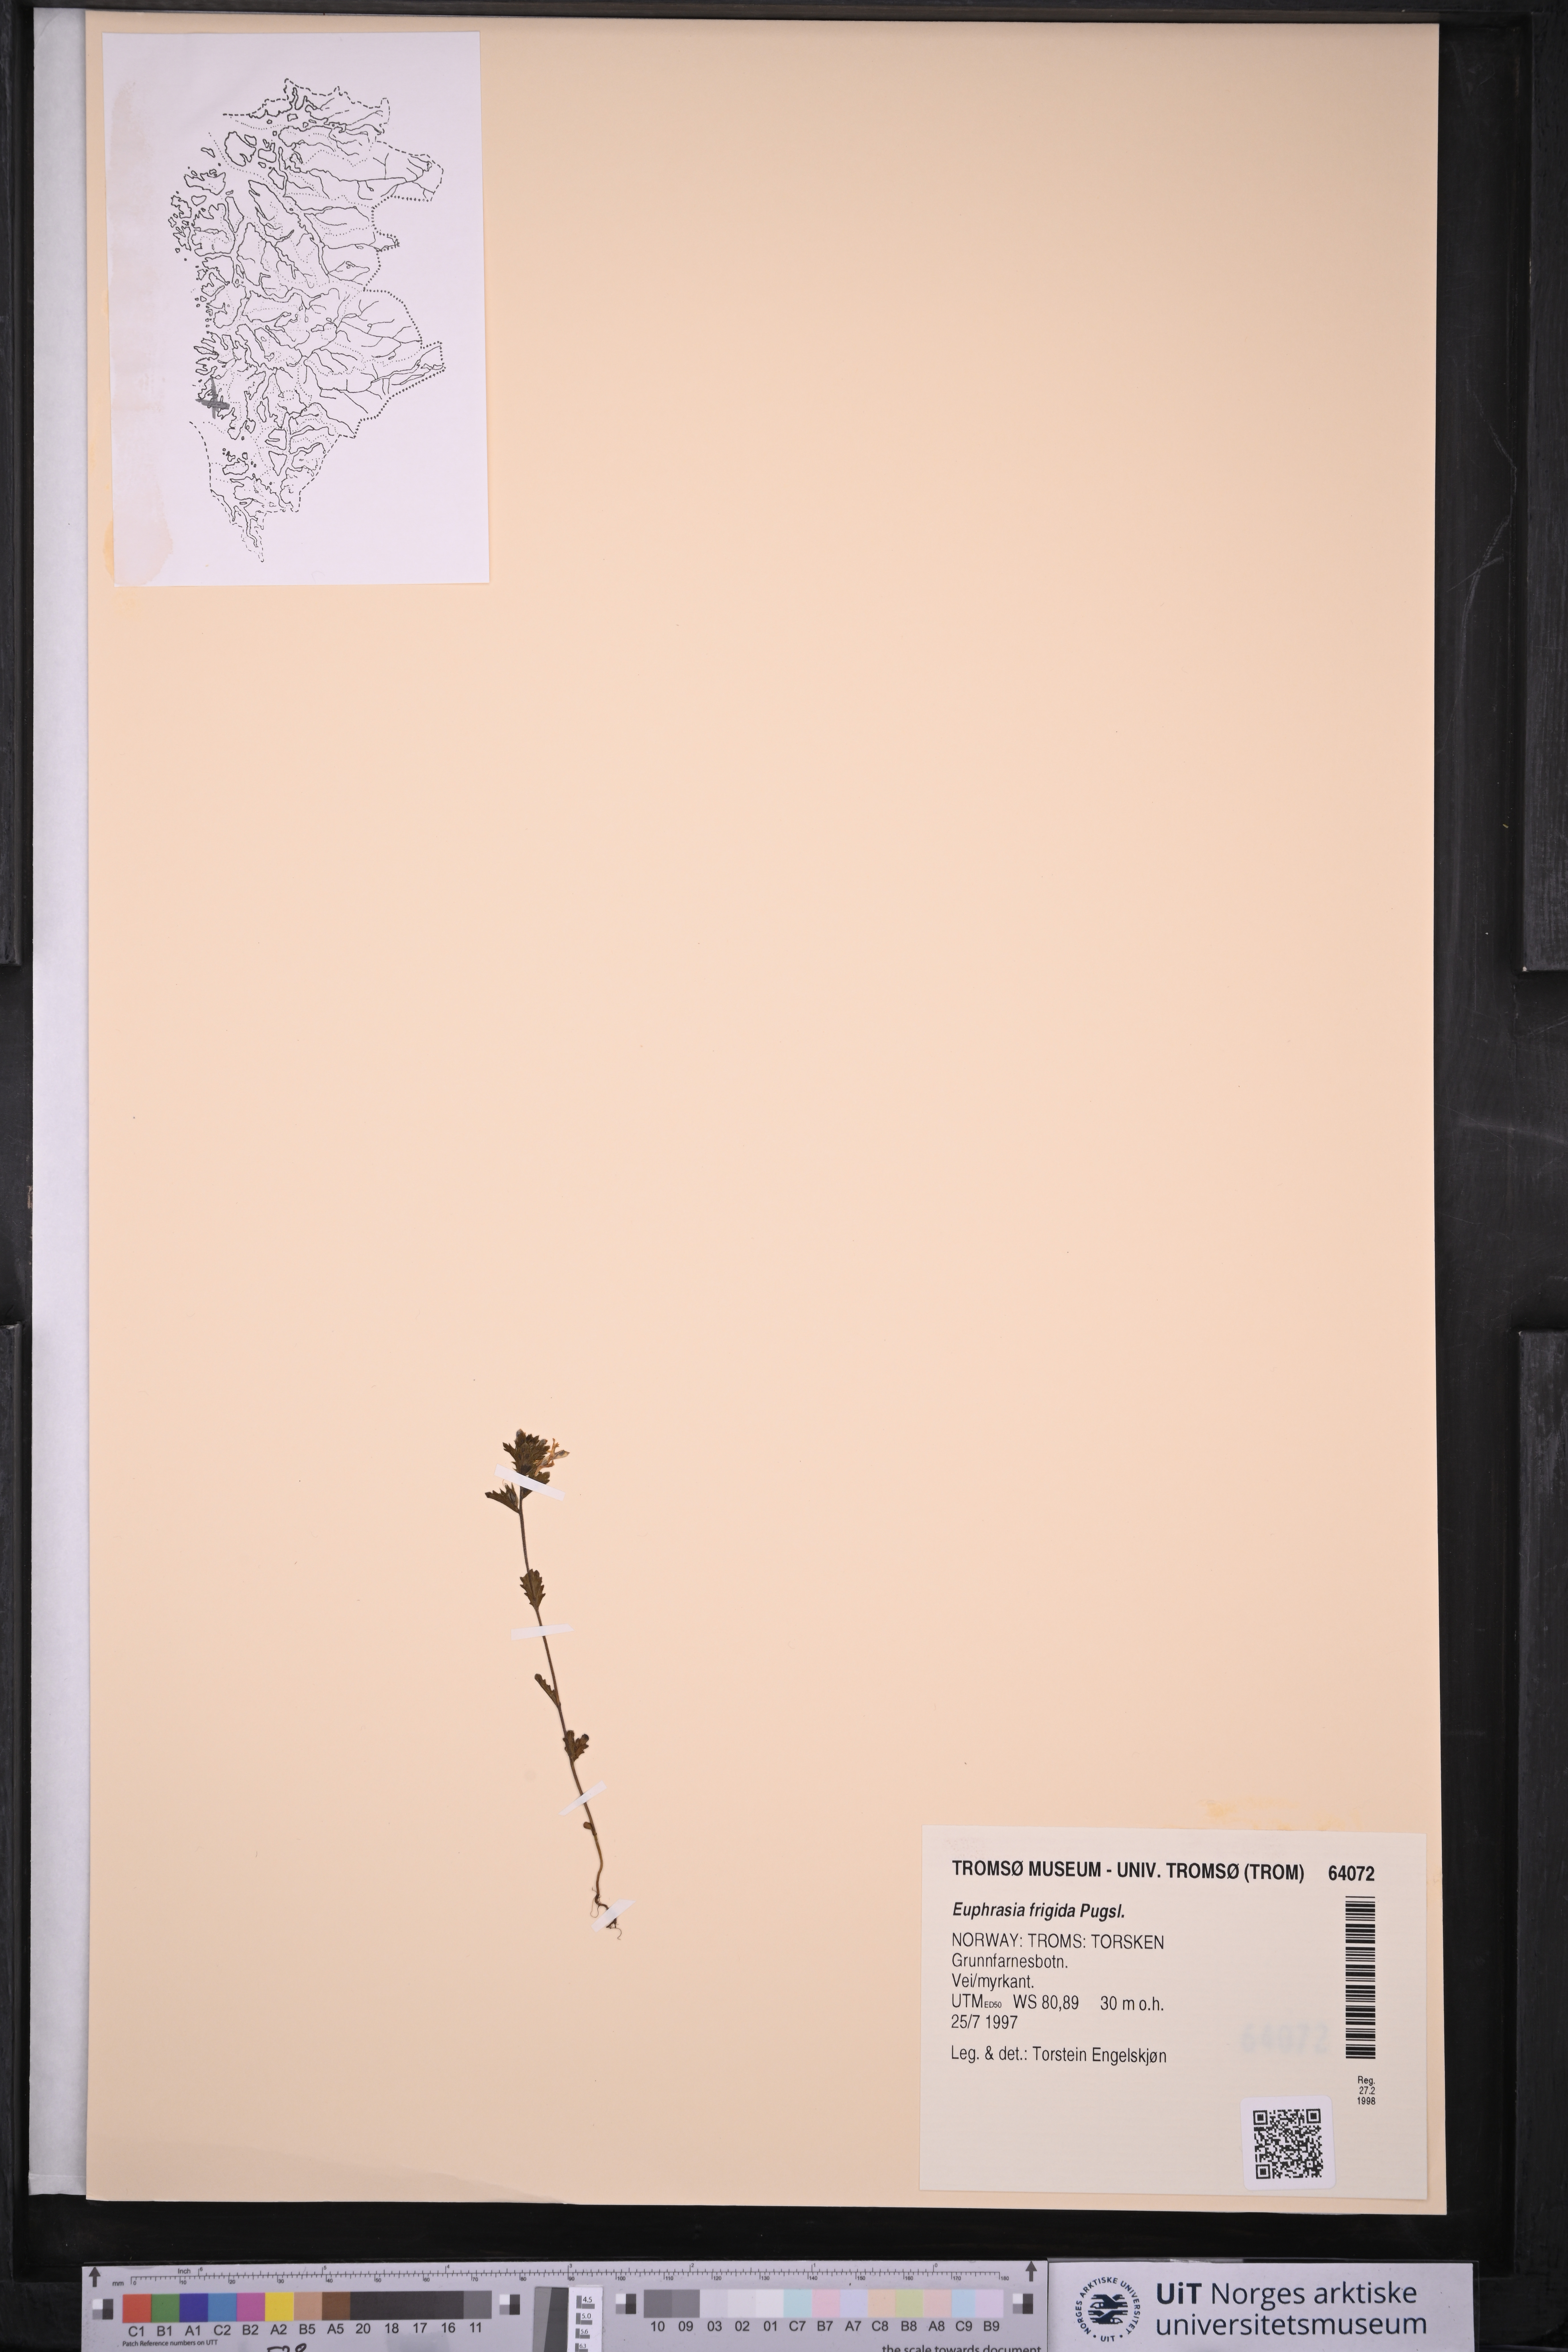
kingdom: Plantae
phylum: Tracheophyta
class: Magnoliopsida
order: Lamiales
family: Orobanchaceae
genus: Euphrasia
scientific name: Euphrasia frigida
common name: An eyebright
